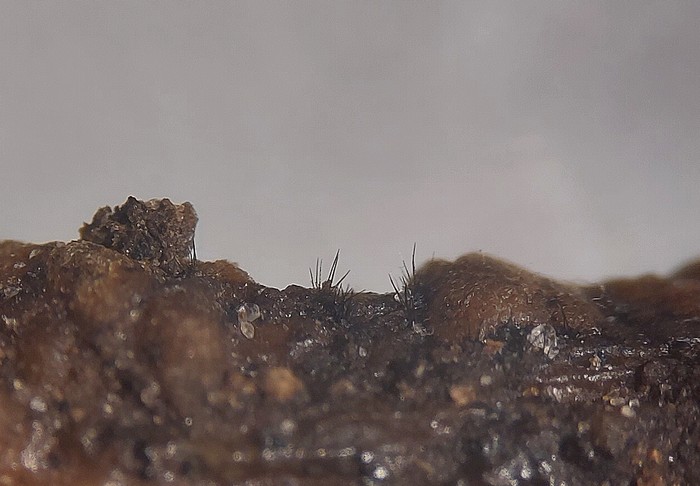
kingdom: Fungi
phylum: Ascomycota
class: Sordariomycetes
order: Glomerellales
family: Glomerellaceae
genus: Colletotrichum
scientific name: Colletotrichum dematium
